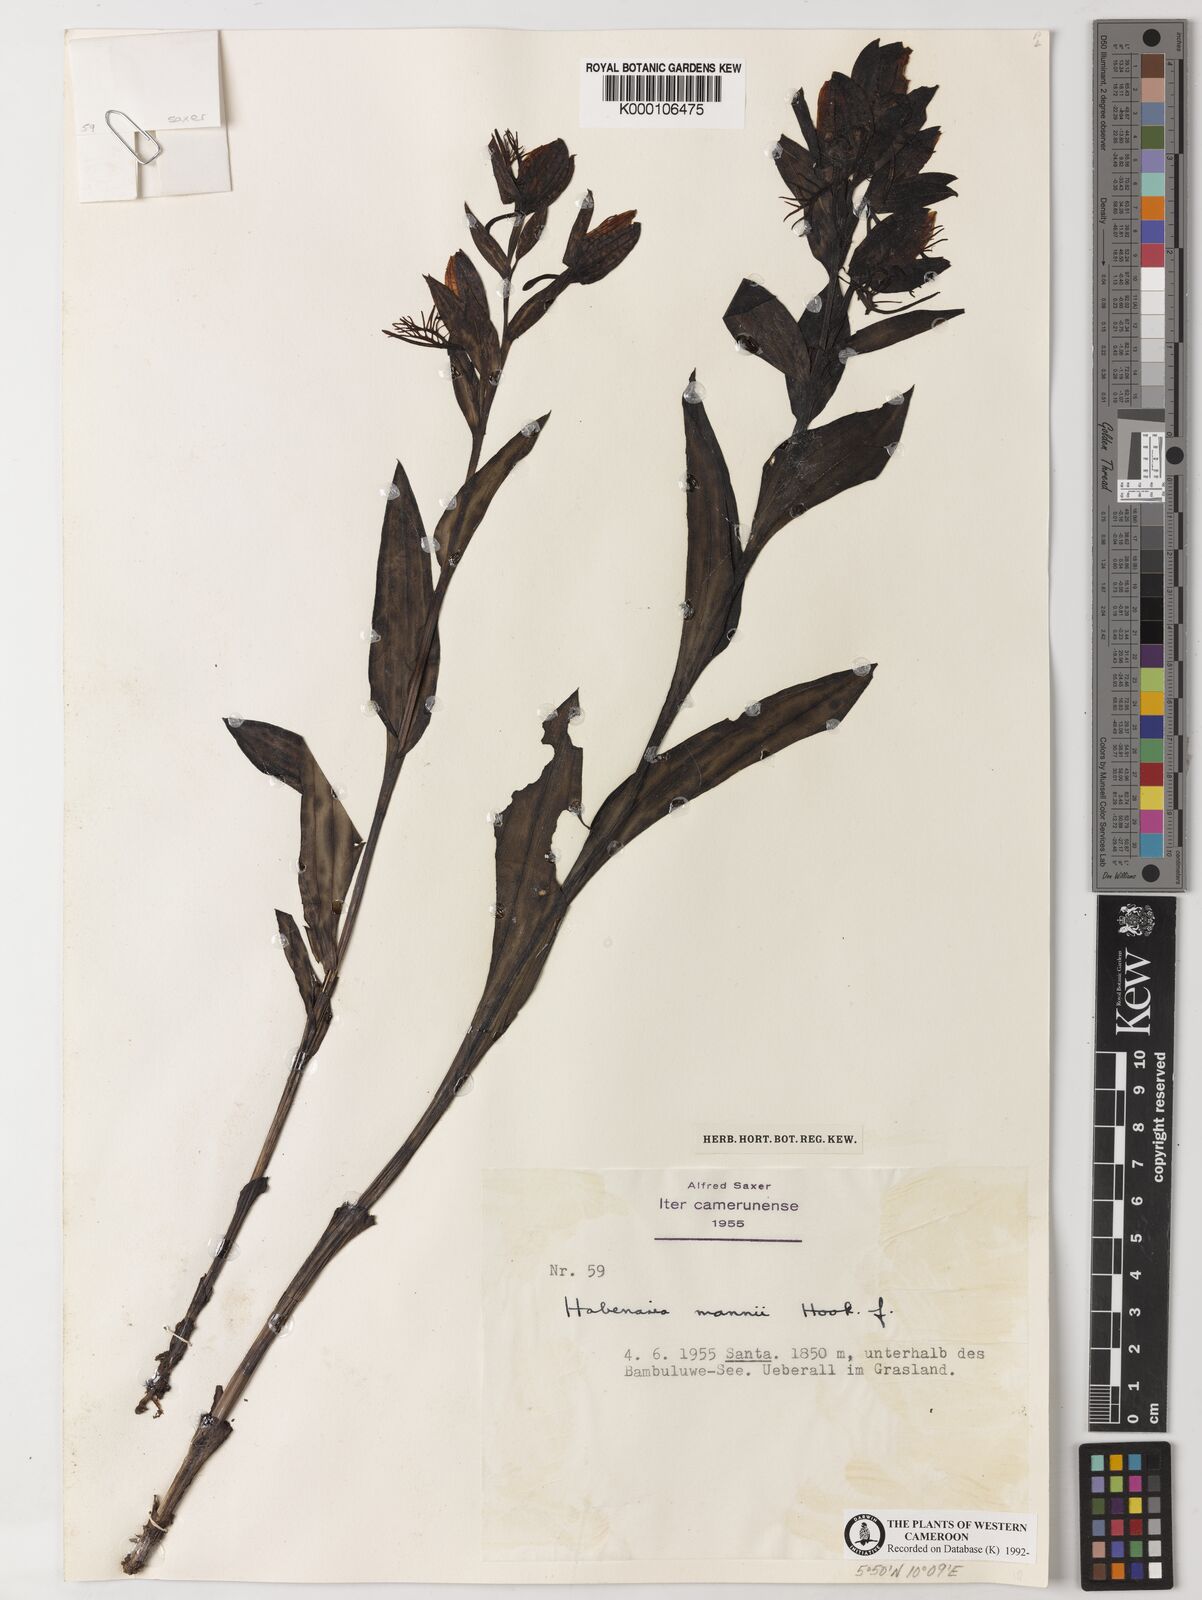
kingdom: Plantae
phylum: Tracheophyta
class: Liliopsida
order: Asparagales
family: Orchidaceae
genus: Habenaria
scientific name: Habenaria mannii
